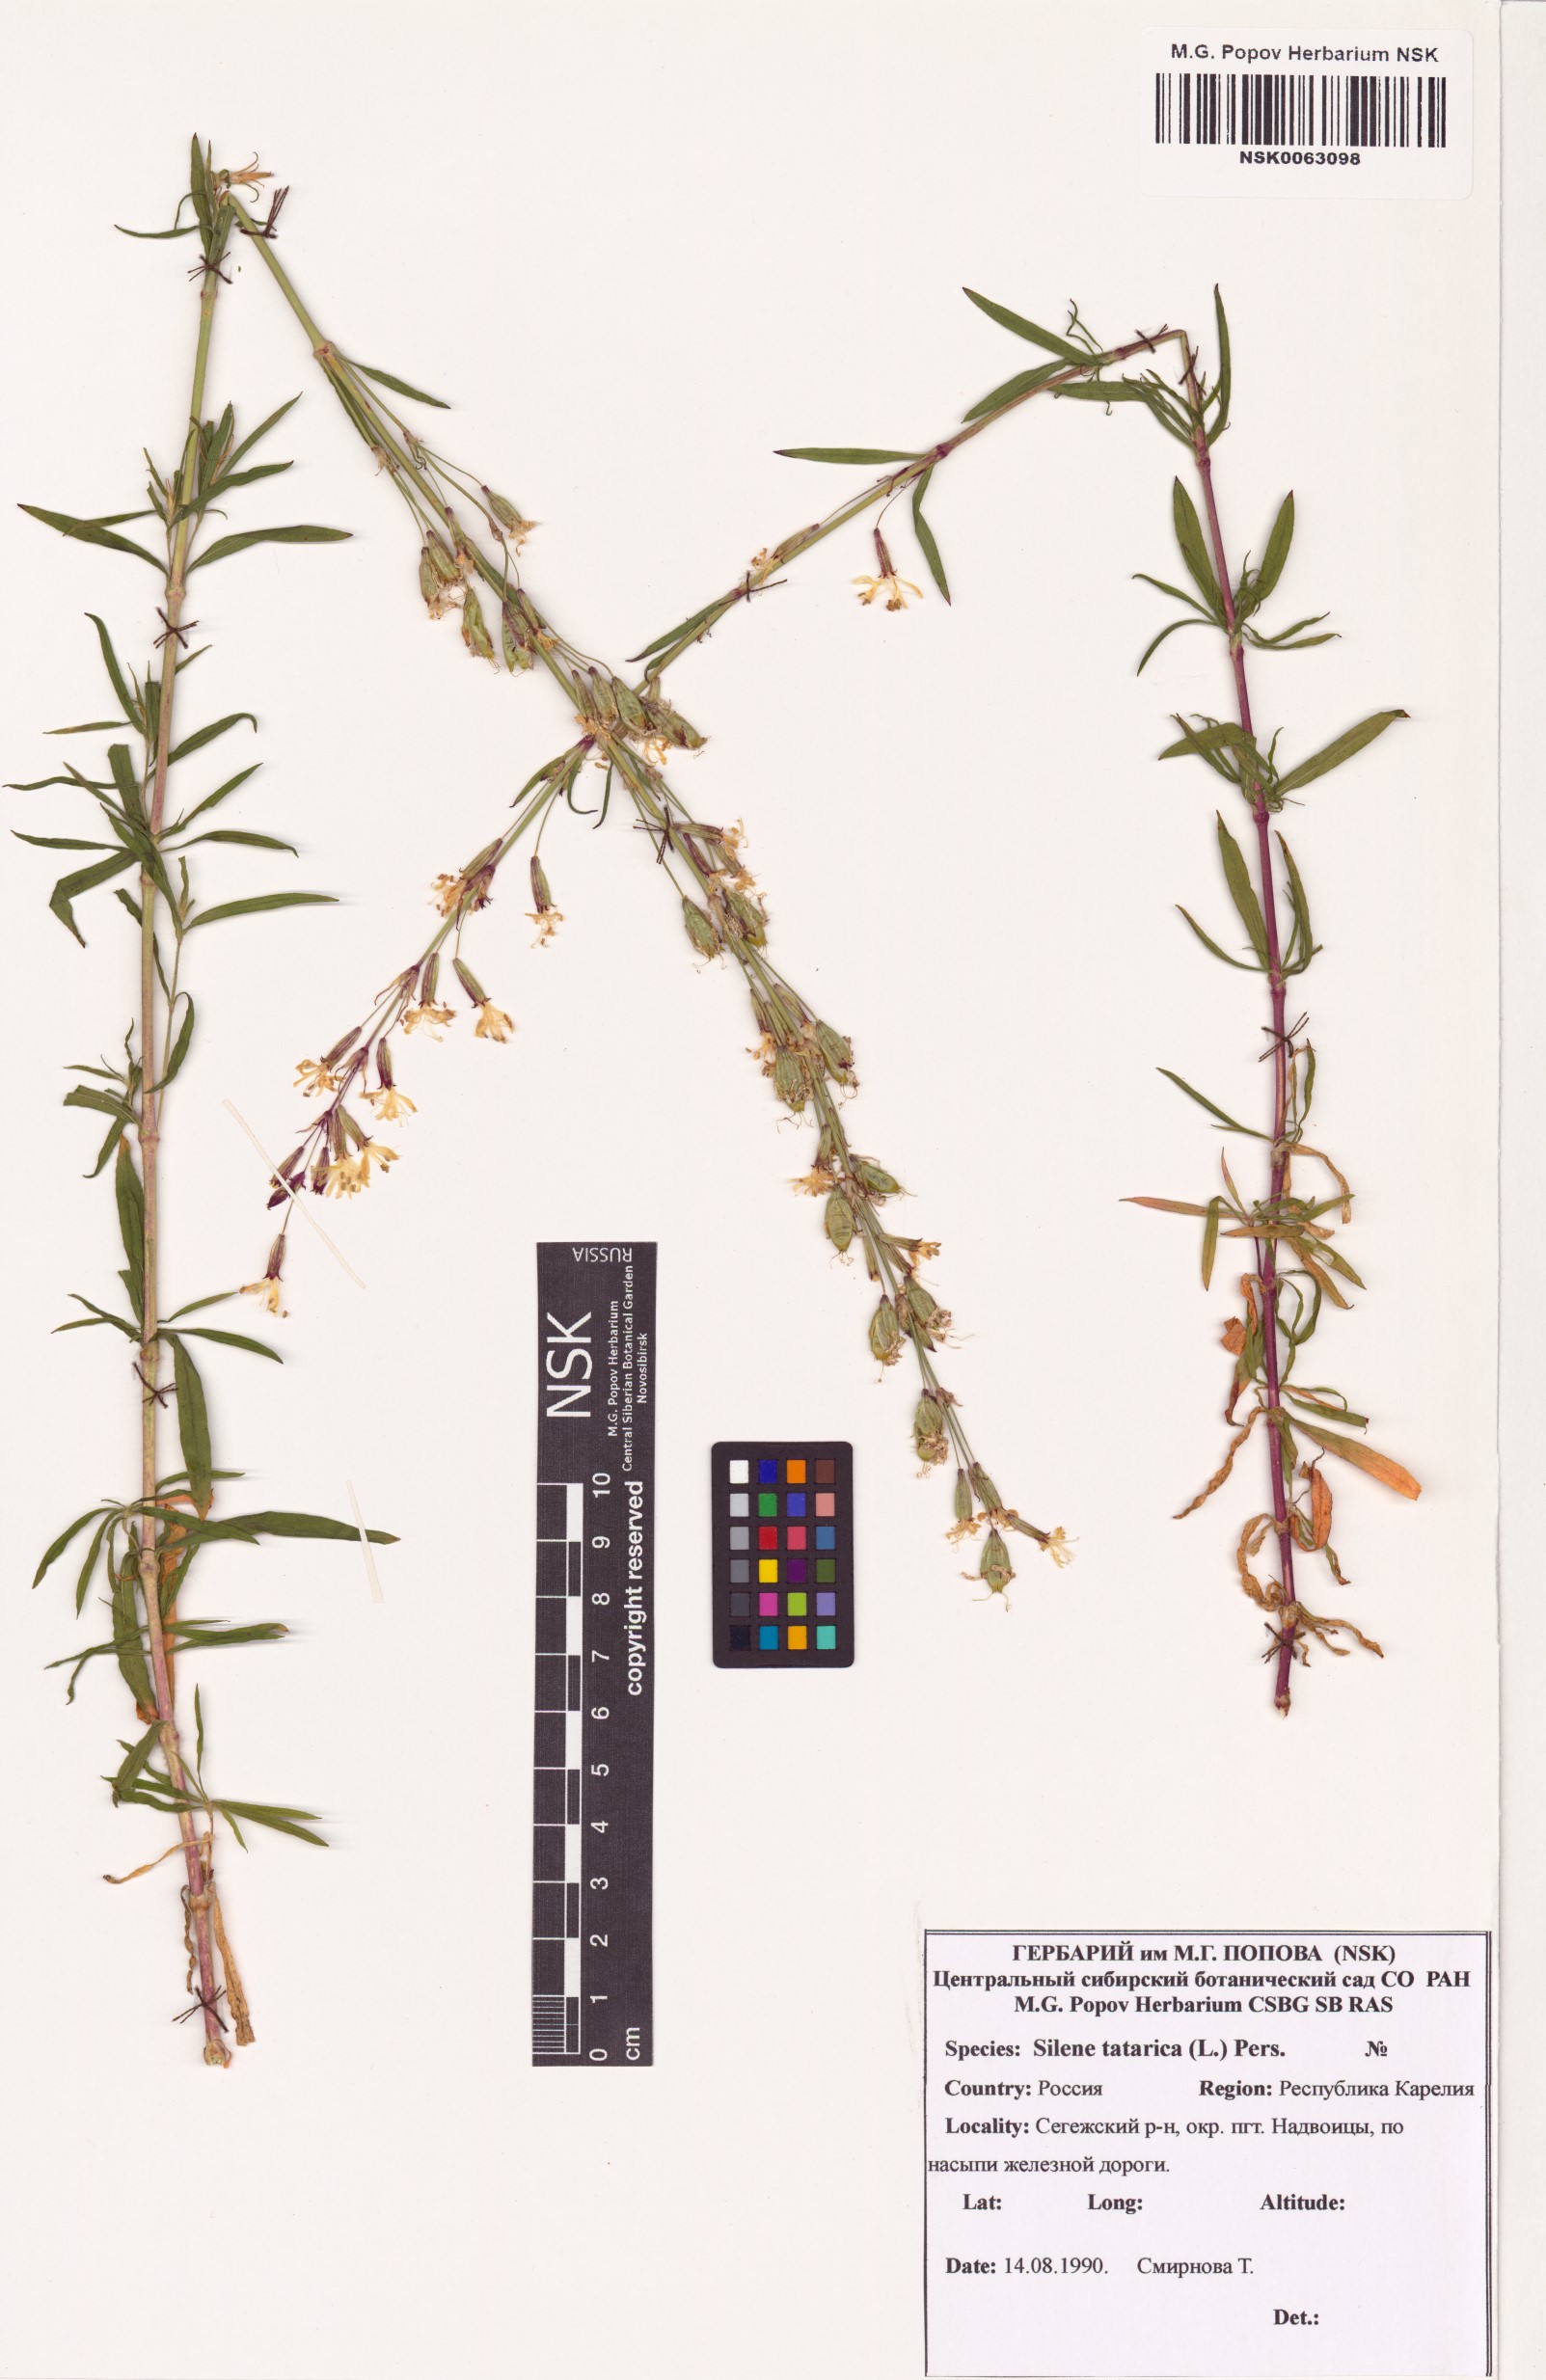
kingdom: Plantae
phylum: Tracheophyta
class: Magnoliopsida
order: Caryophyllales
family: Caryophyllaceae
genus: Silene
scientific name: Silene tatarica
